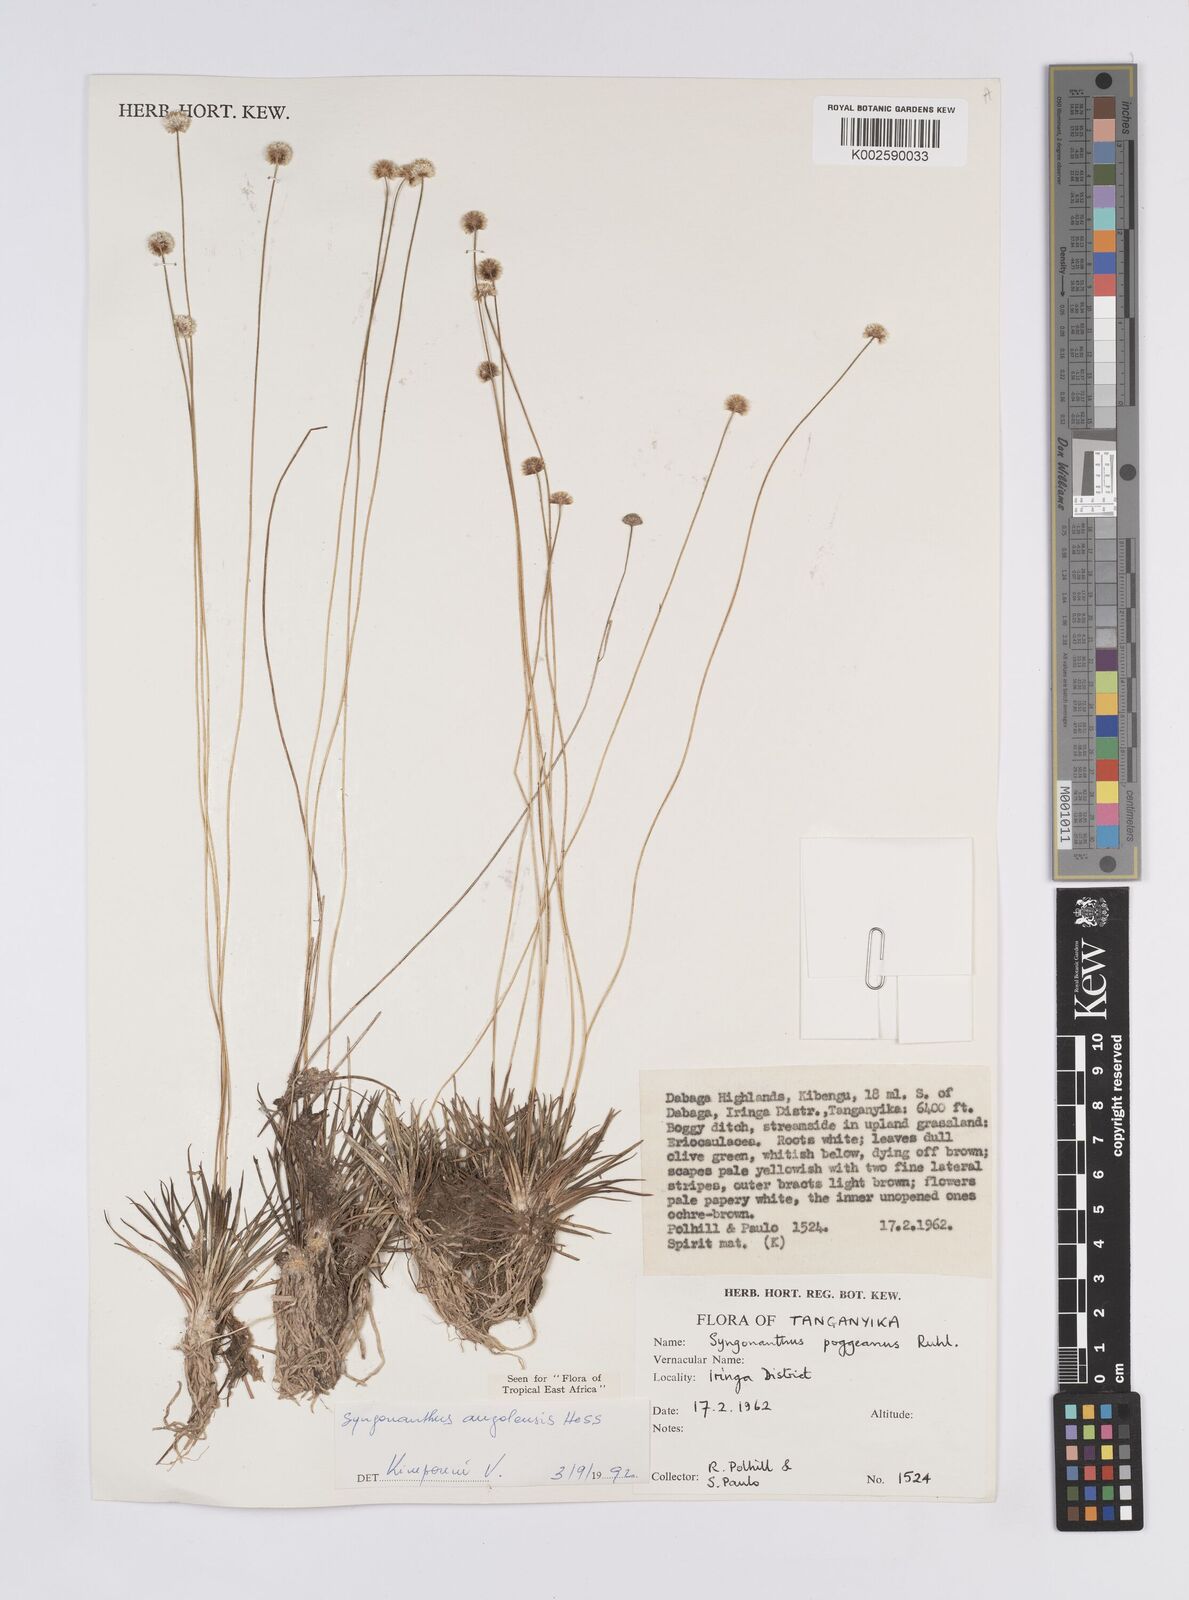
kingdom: Plantae
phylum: Tracheophyta
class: Liliopsida
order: Poales
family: Eriocaulaceae
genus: Syngonanthus
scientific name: Syngonanthus angolensis
